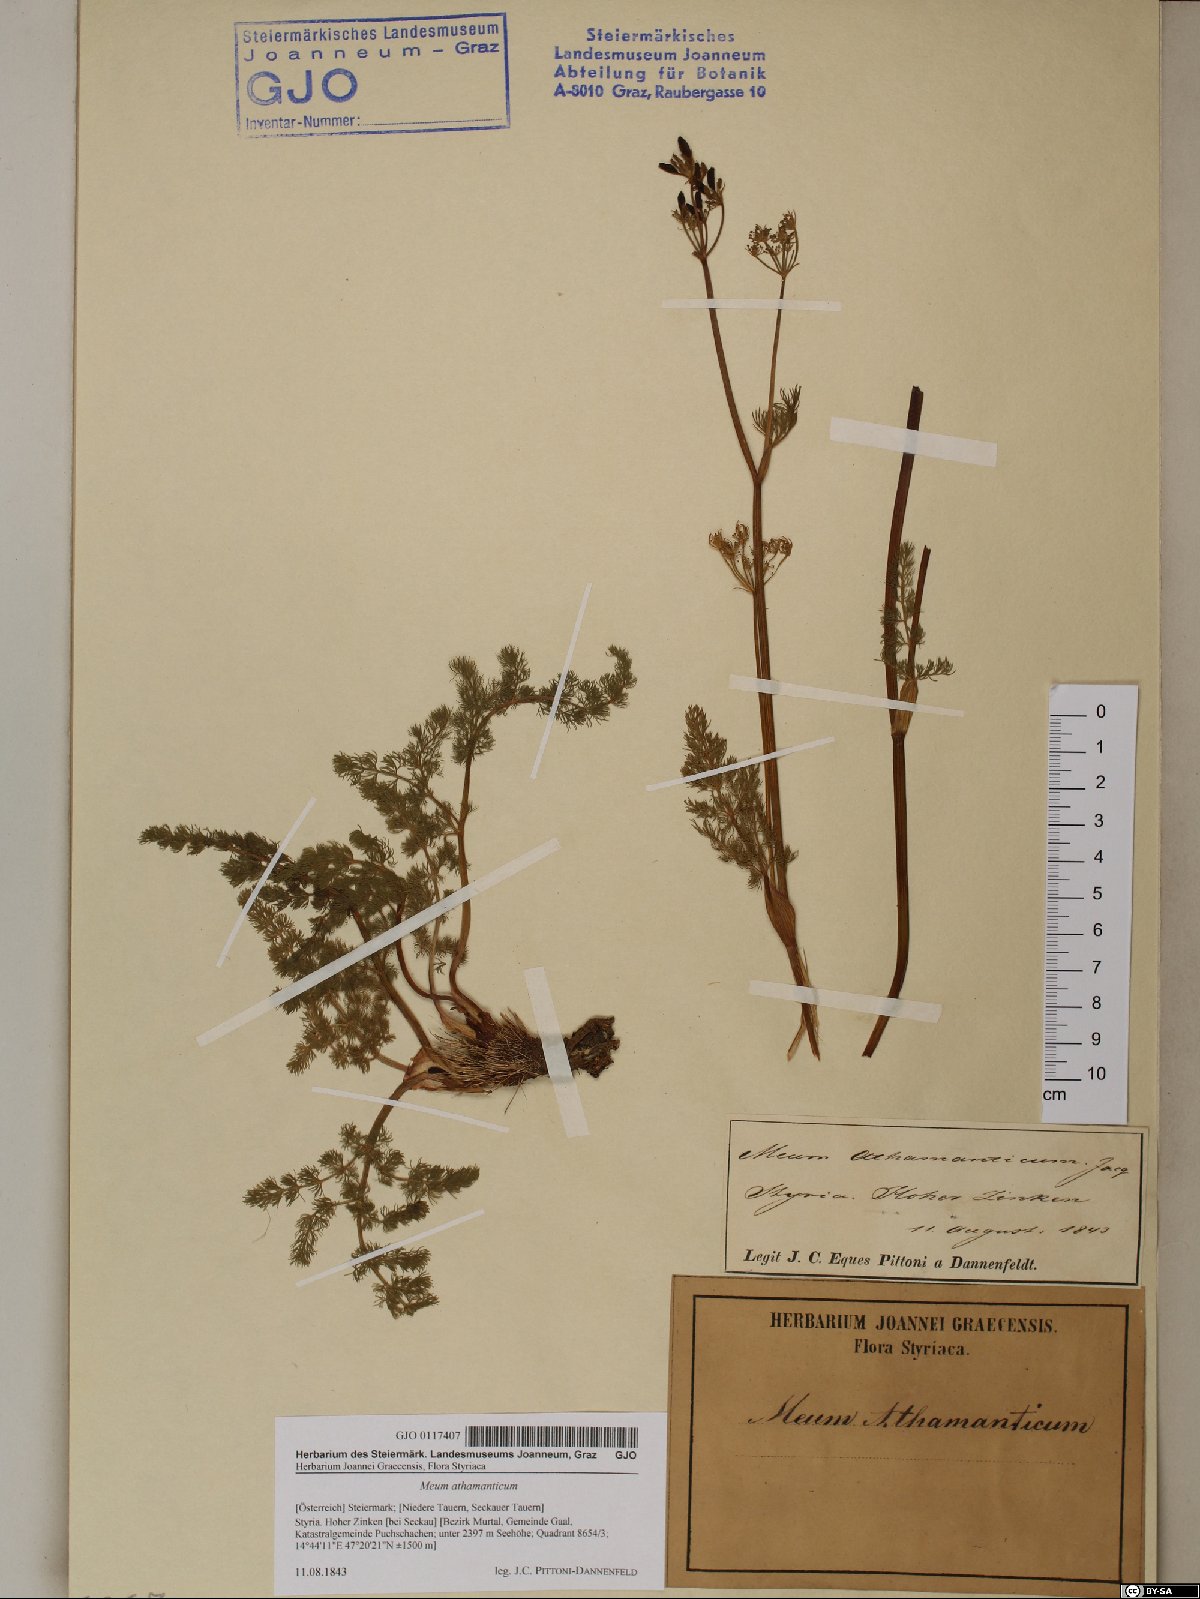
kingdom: Plantae
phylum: Tracheophyta
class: Magnoliopsida
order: Apiales
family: Apiaceae
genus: Meum
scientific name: Meum athamanticum
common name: Spignel
